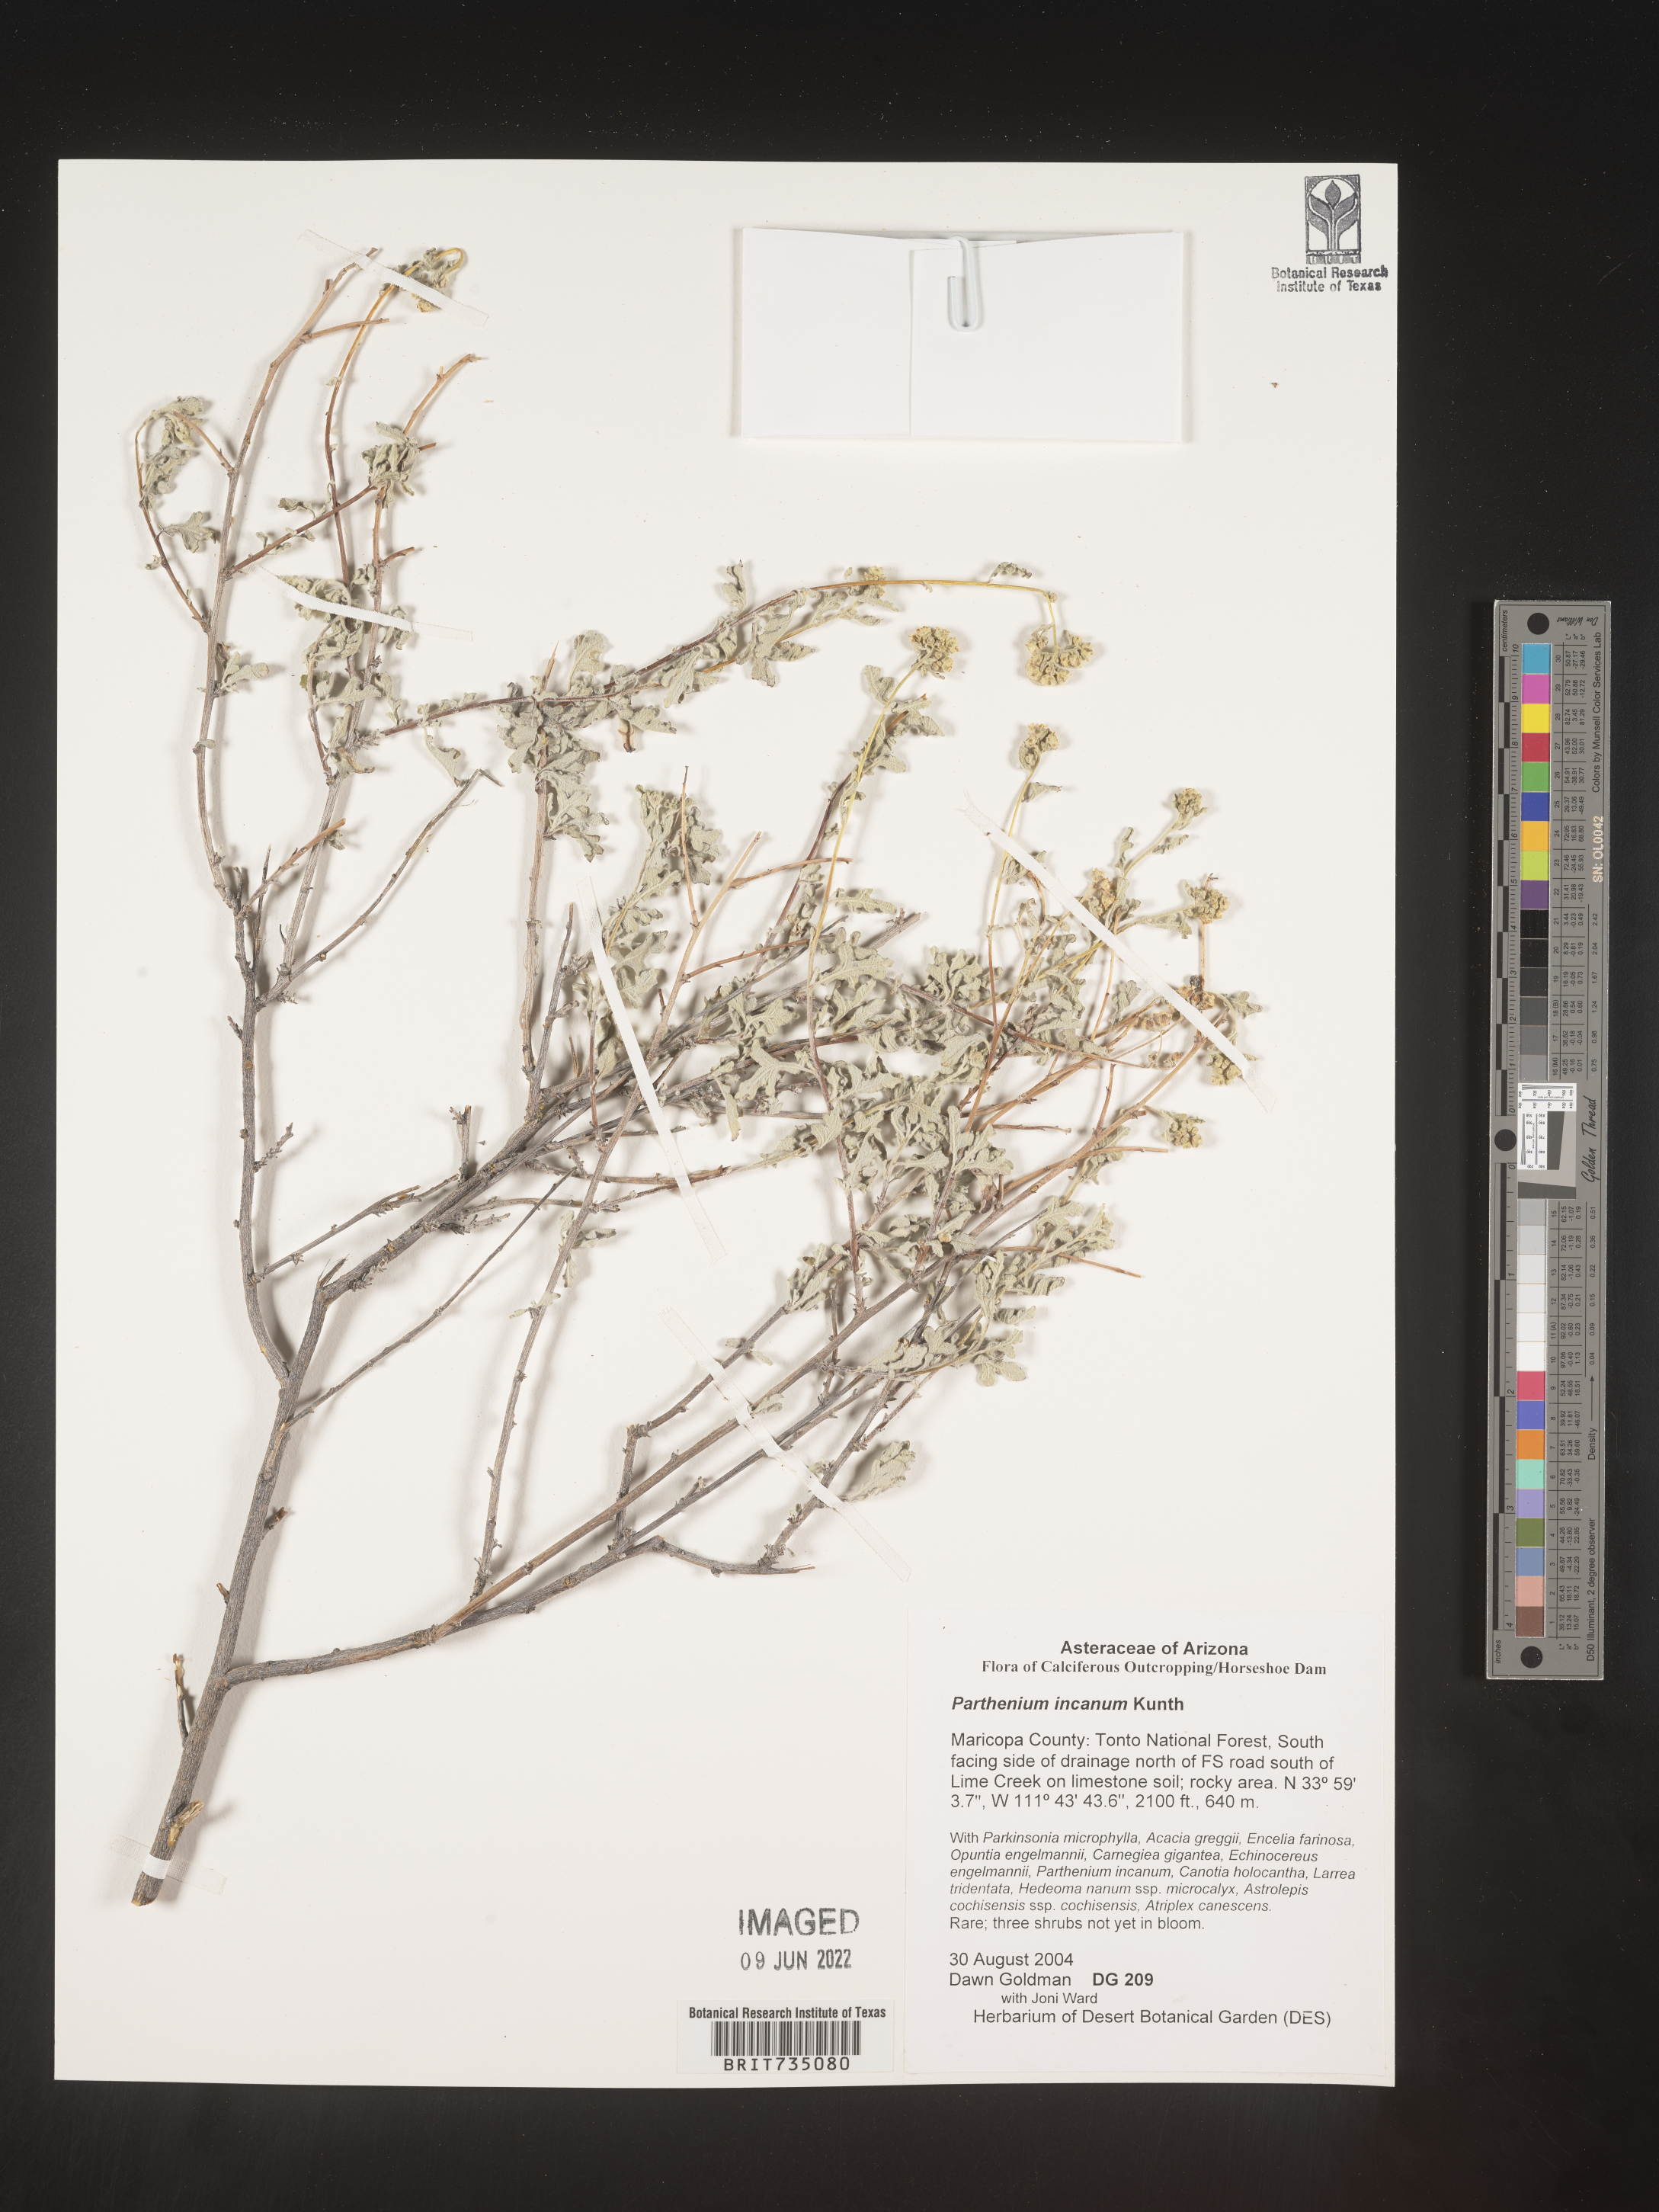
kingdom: Plantae
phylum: Tracheophyta
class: Magnoliopsida
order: Asterales
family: Asteraceae
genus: Parthenium
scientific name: Parthenium incanum
